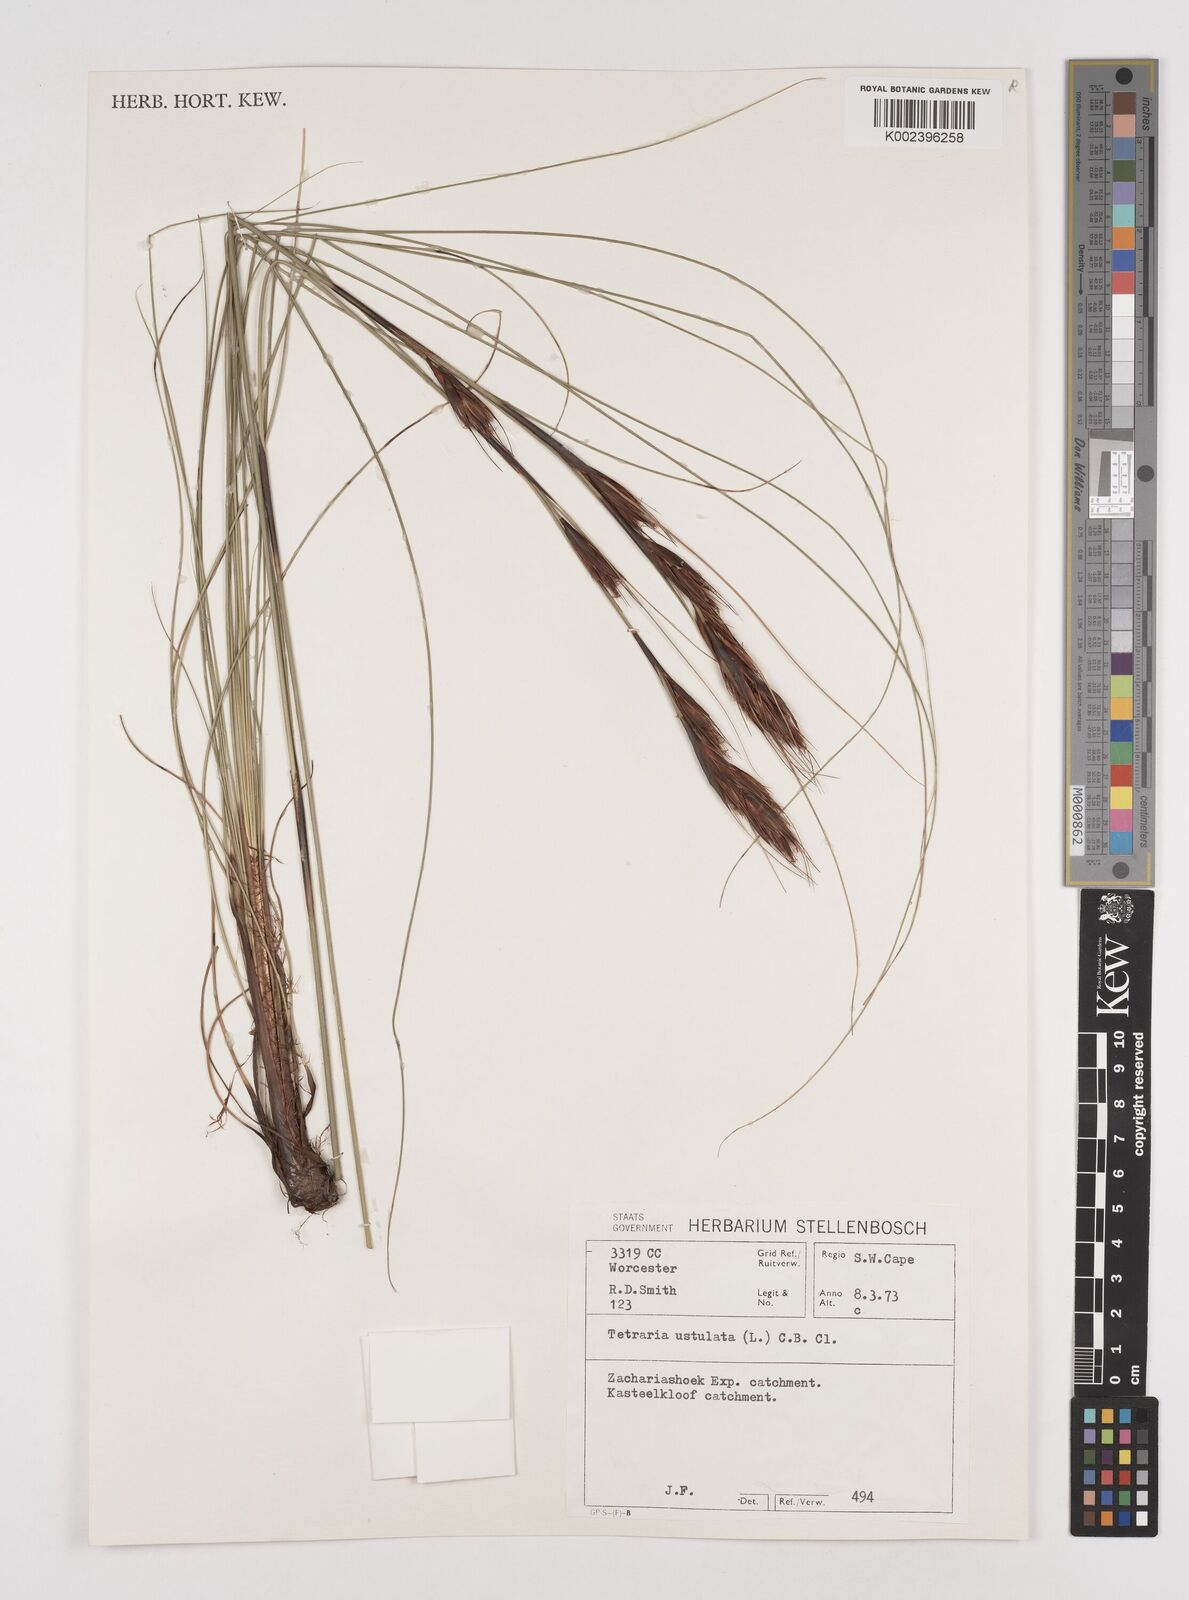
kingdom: Plantae
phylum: Tracheophyta
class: Liliopsida
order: Poales
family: Cyperaceae
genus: Tetraria
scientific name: Tetraria ustulata
